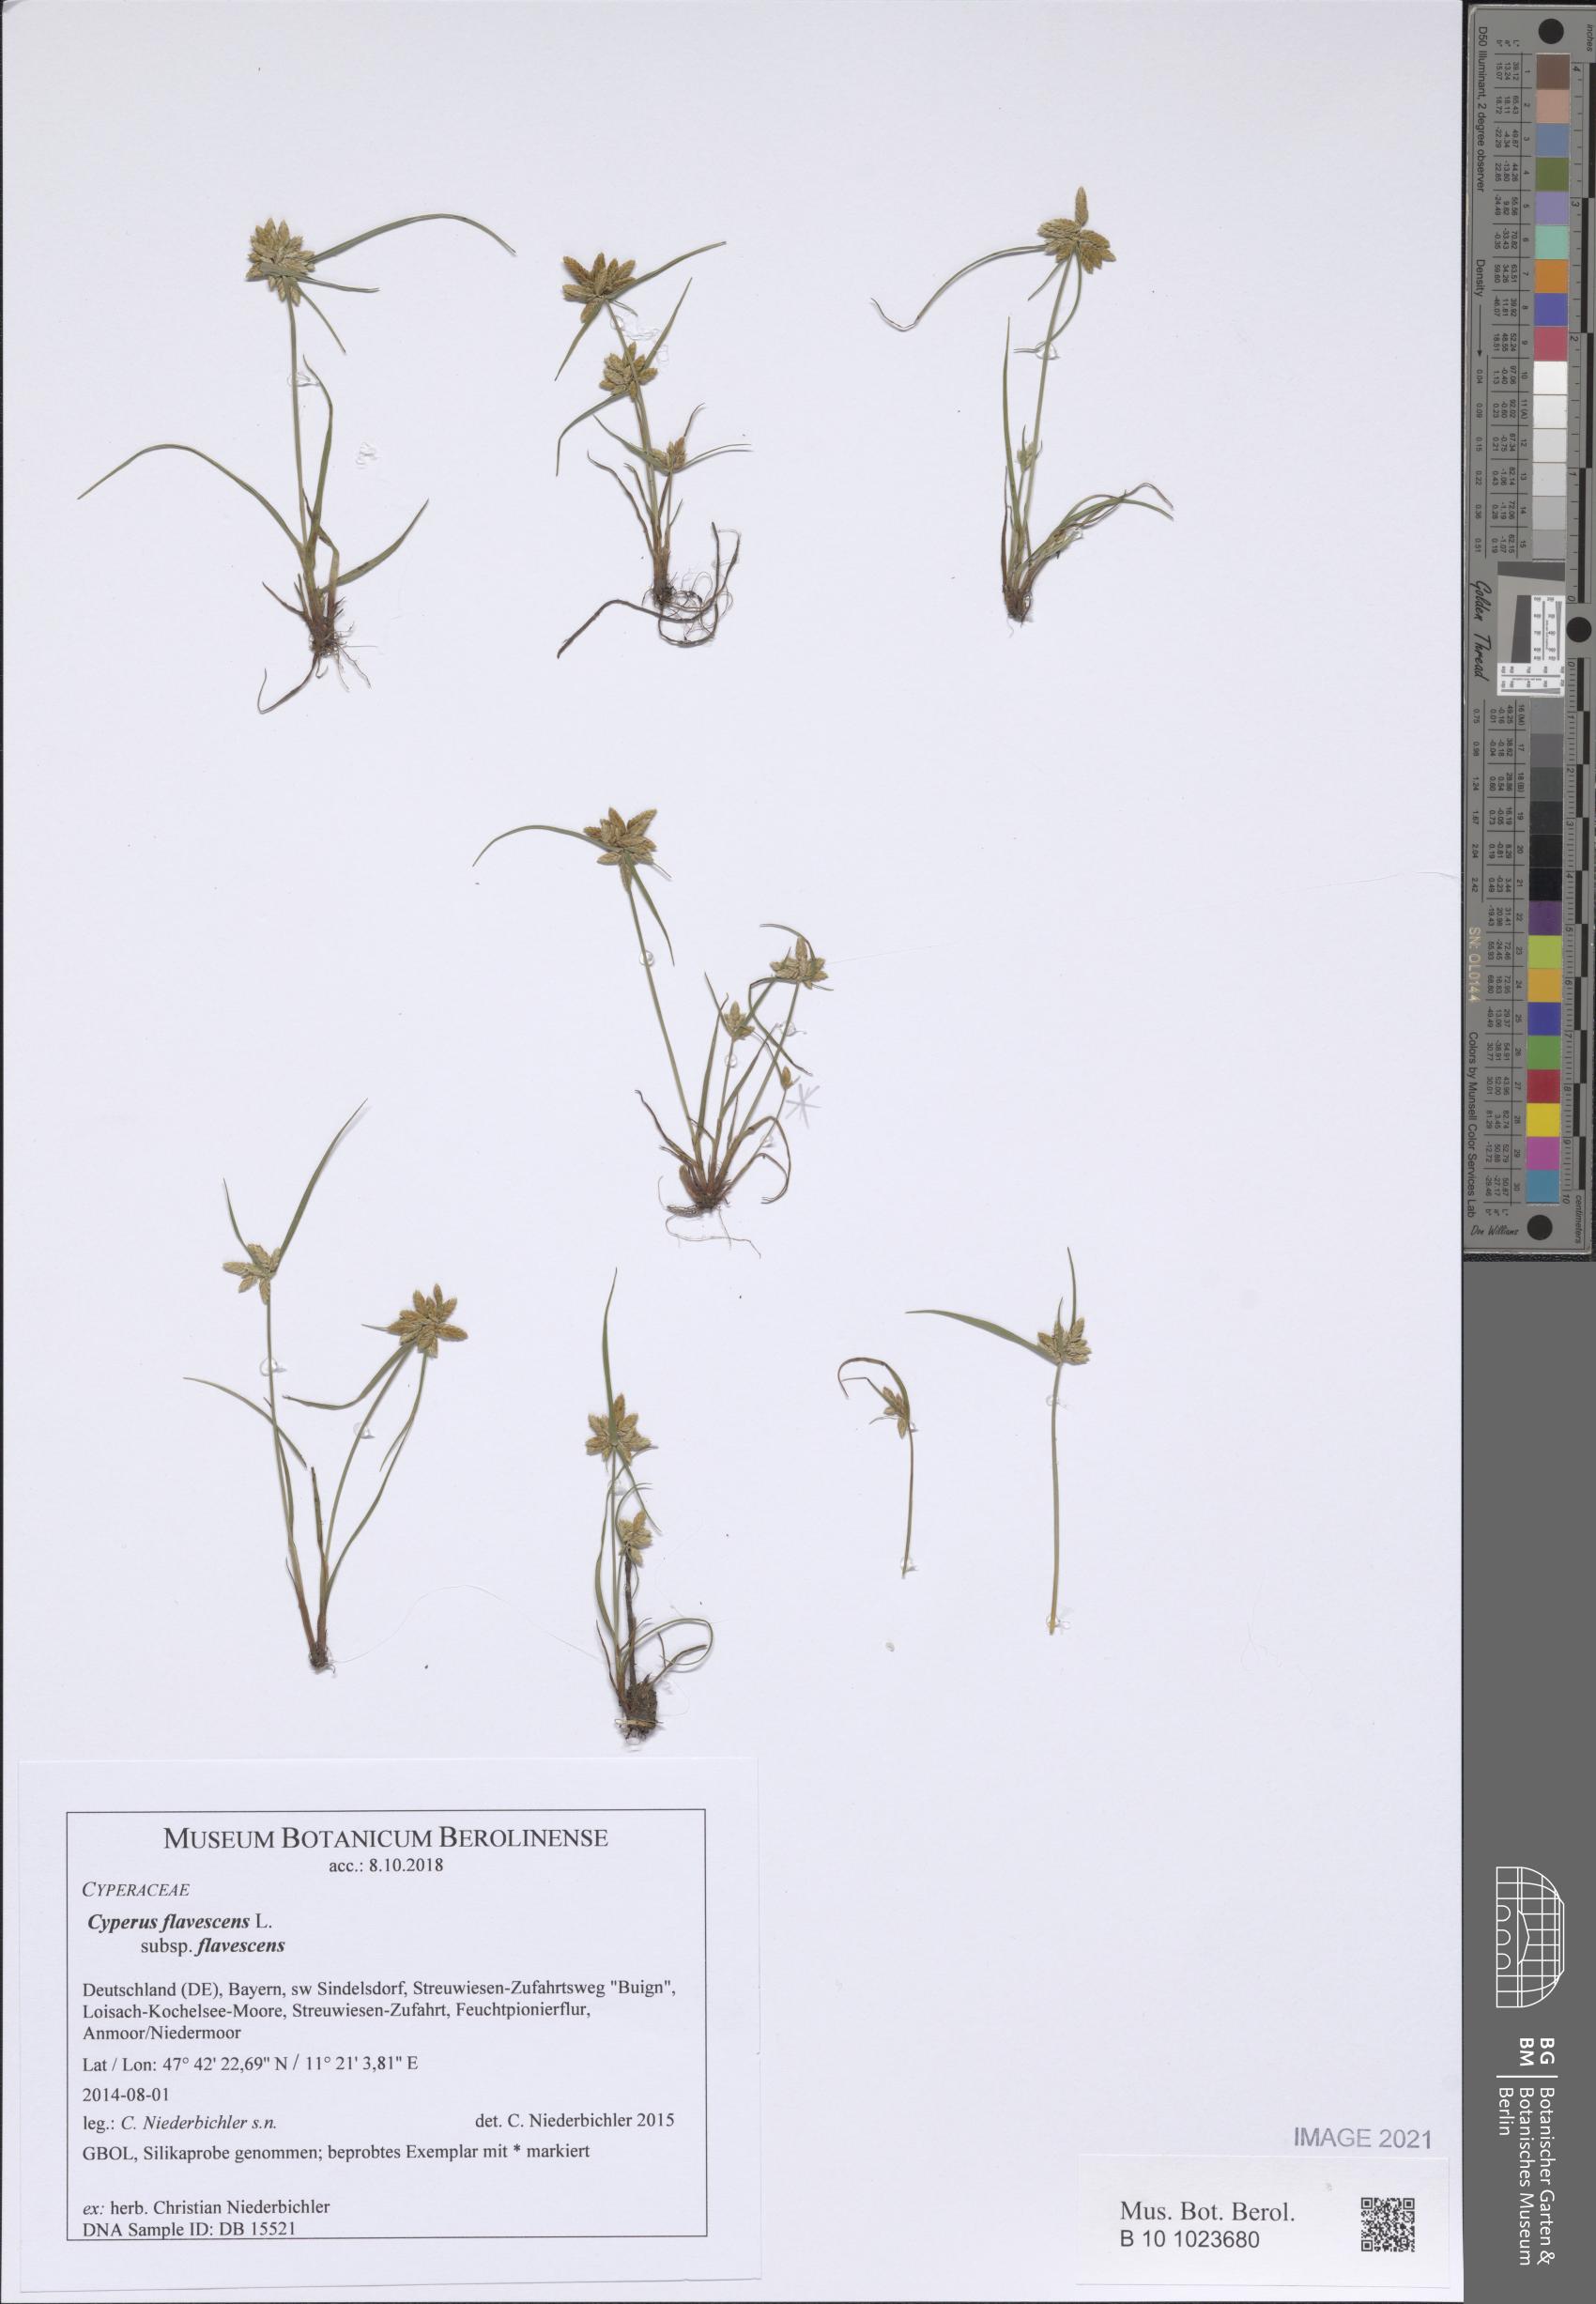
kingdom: Plantae
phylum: Tracheophyta
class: Liliopsida
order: Poales
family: Cyperaceae
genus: Cyperus
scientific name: Cyperus flavescens
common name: Yellow galingale
